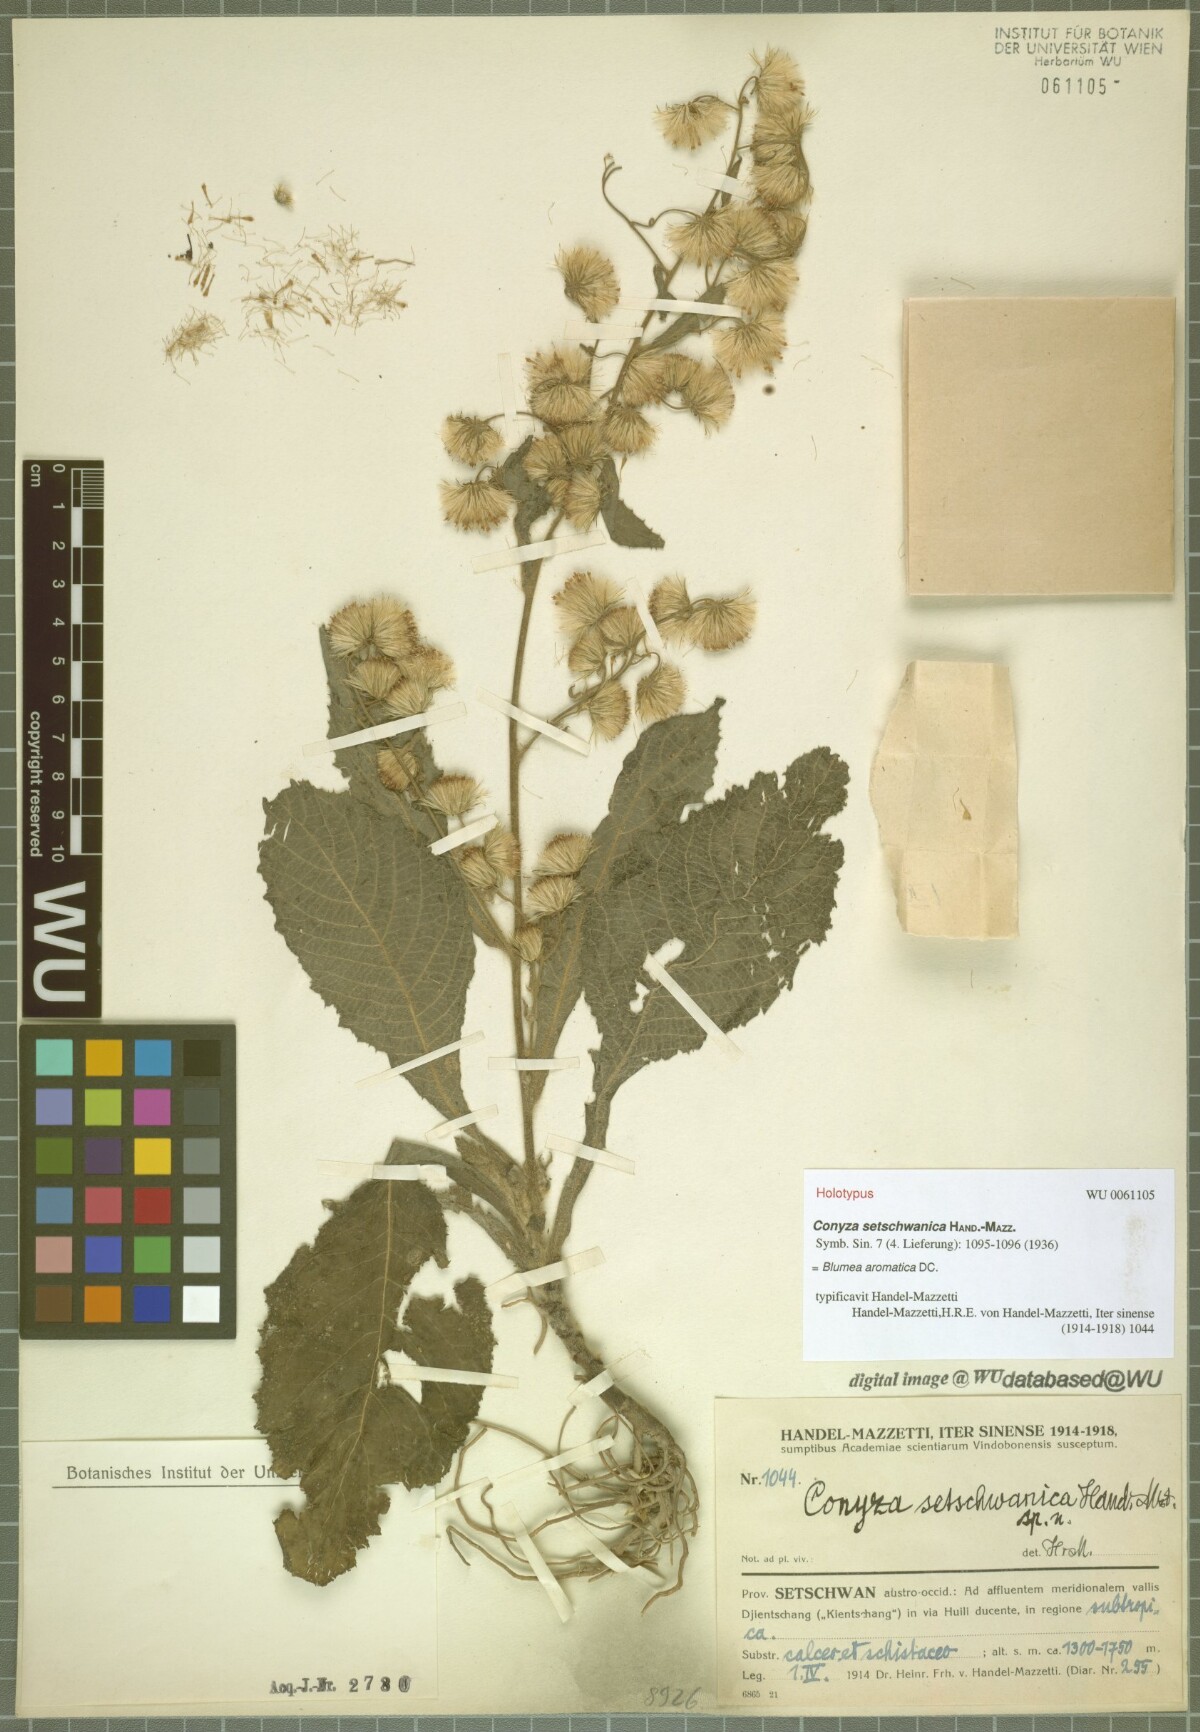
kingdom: Plantae
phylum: Tracheophyta
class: Magnoliopsida
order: Asterales
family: Asteraceae
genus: Blumea
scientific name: Blumea aromatica
